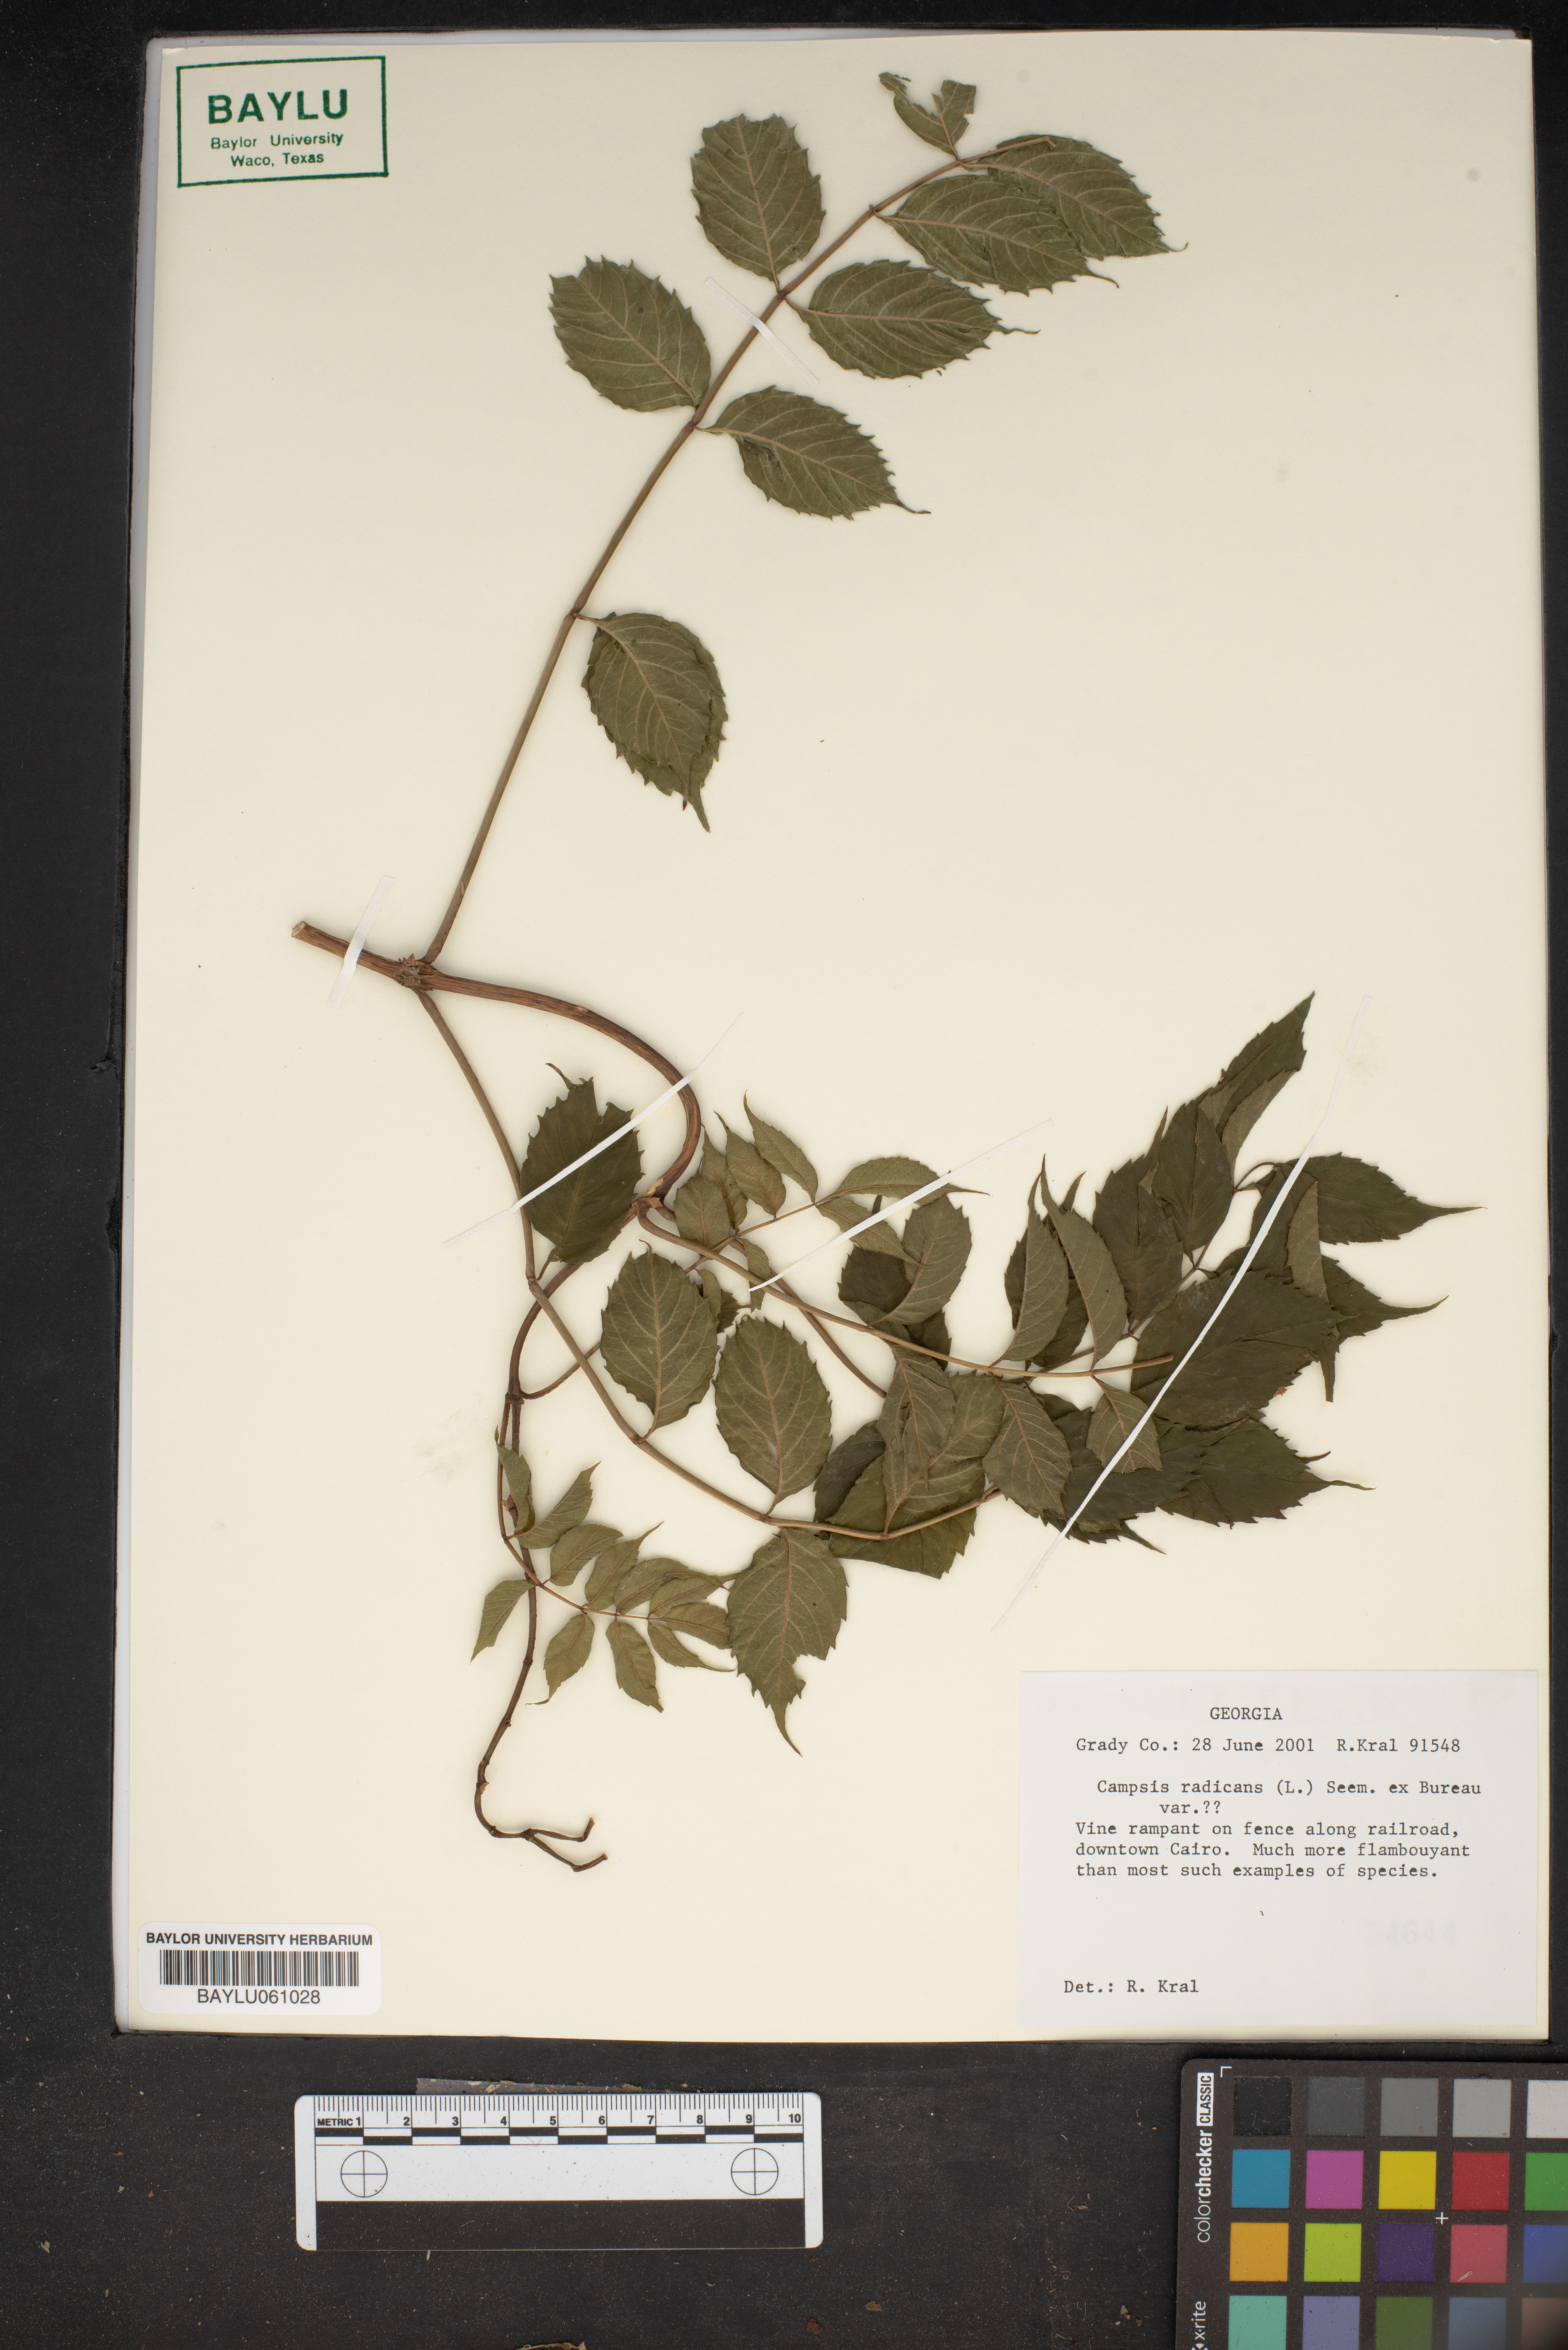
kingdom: Plantae
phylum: Tracheophyta
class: Magnoliopsida
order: Lamiales
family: Bignoniaceae
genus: Campsis
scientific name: Campsis radicans
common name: Trumpet-creeper
